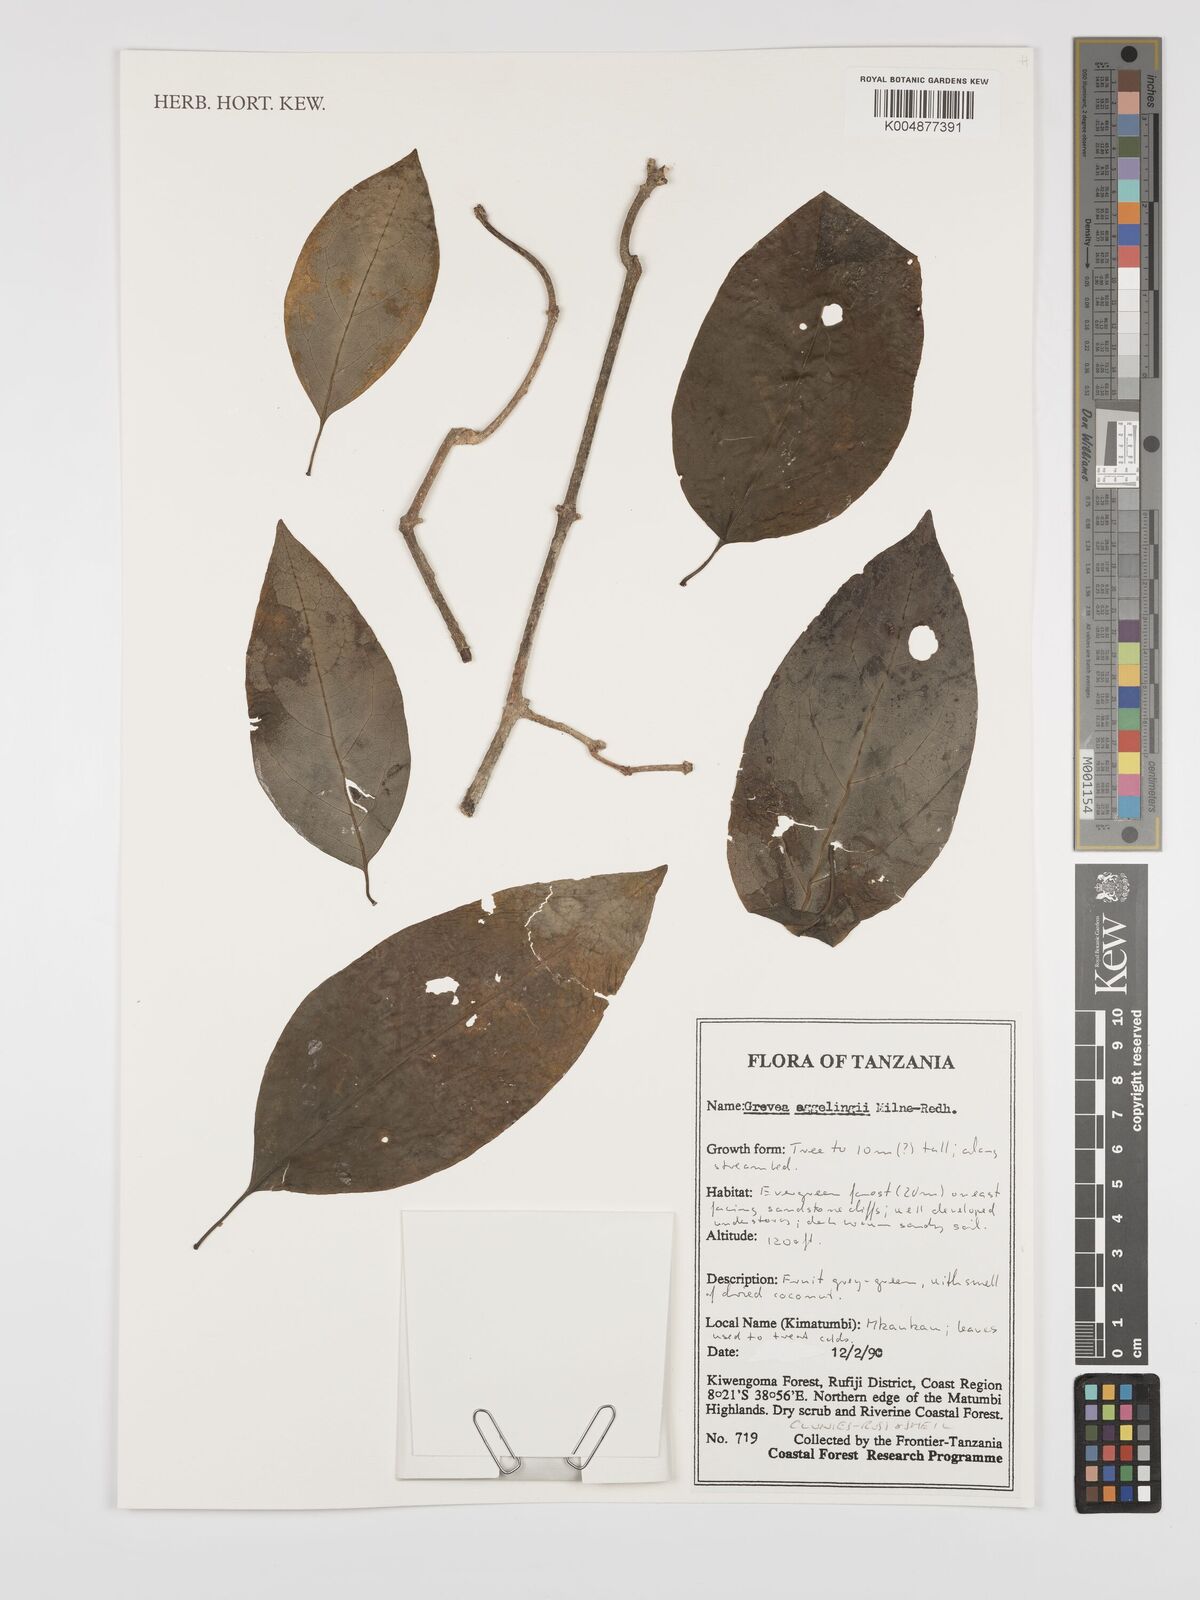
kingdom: Plantae
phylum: Tracheophyta
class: Magnoliopsida
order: Solanales
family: Montiniaceae
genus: Grevea
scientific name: Grevea eggelingii
